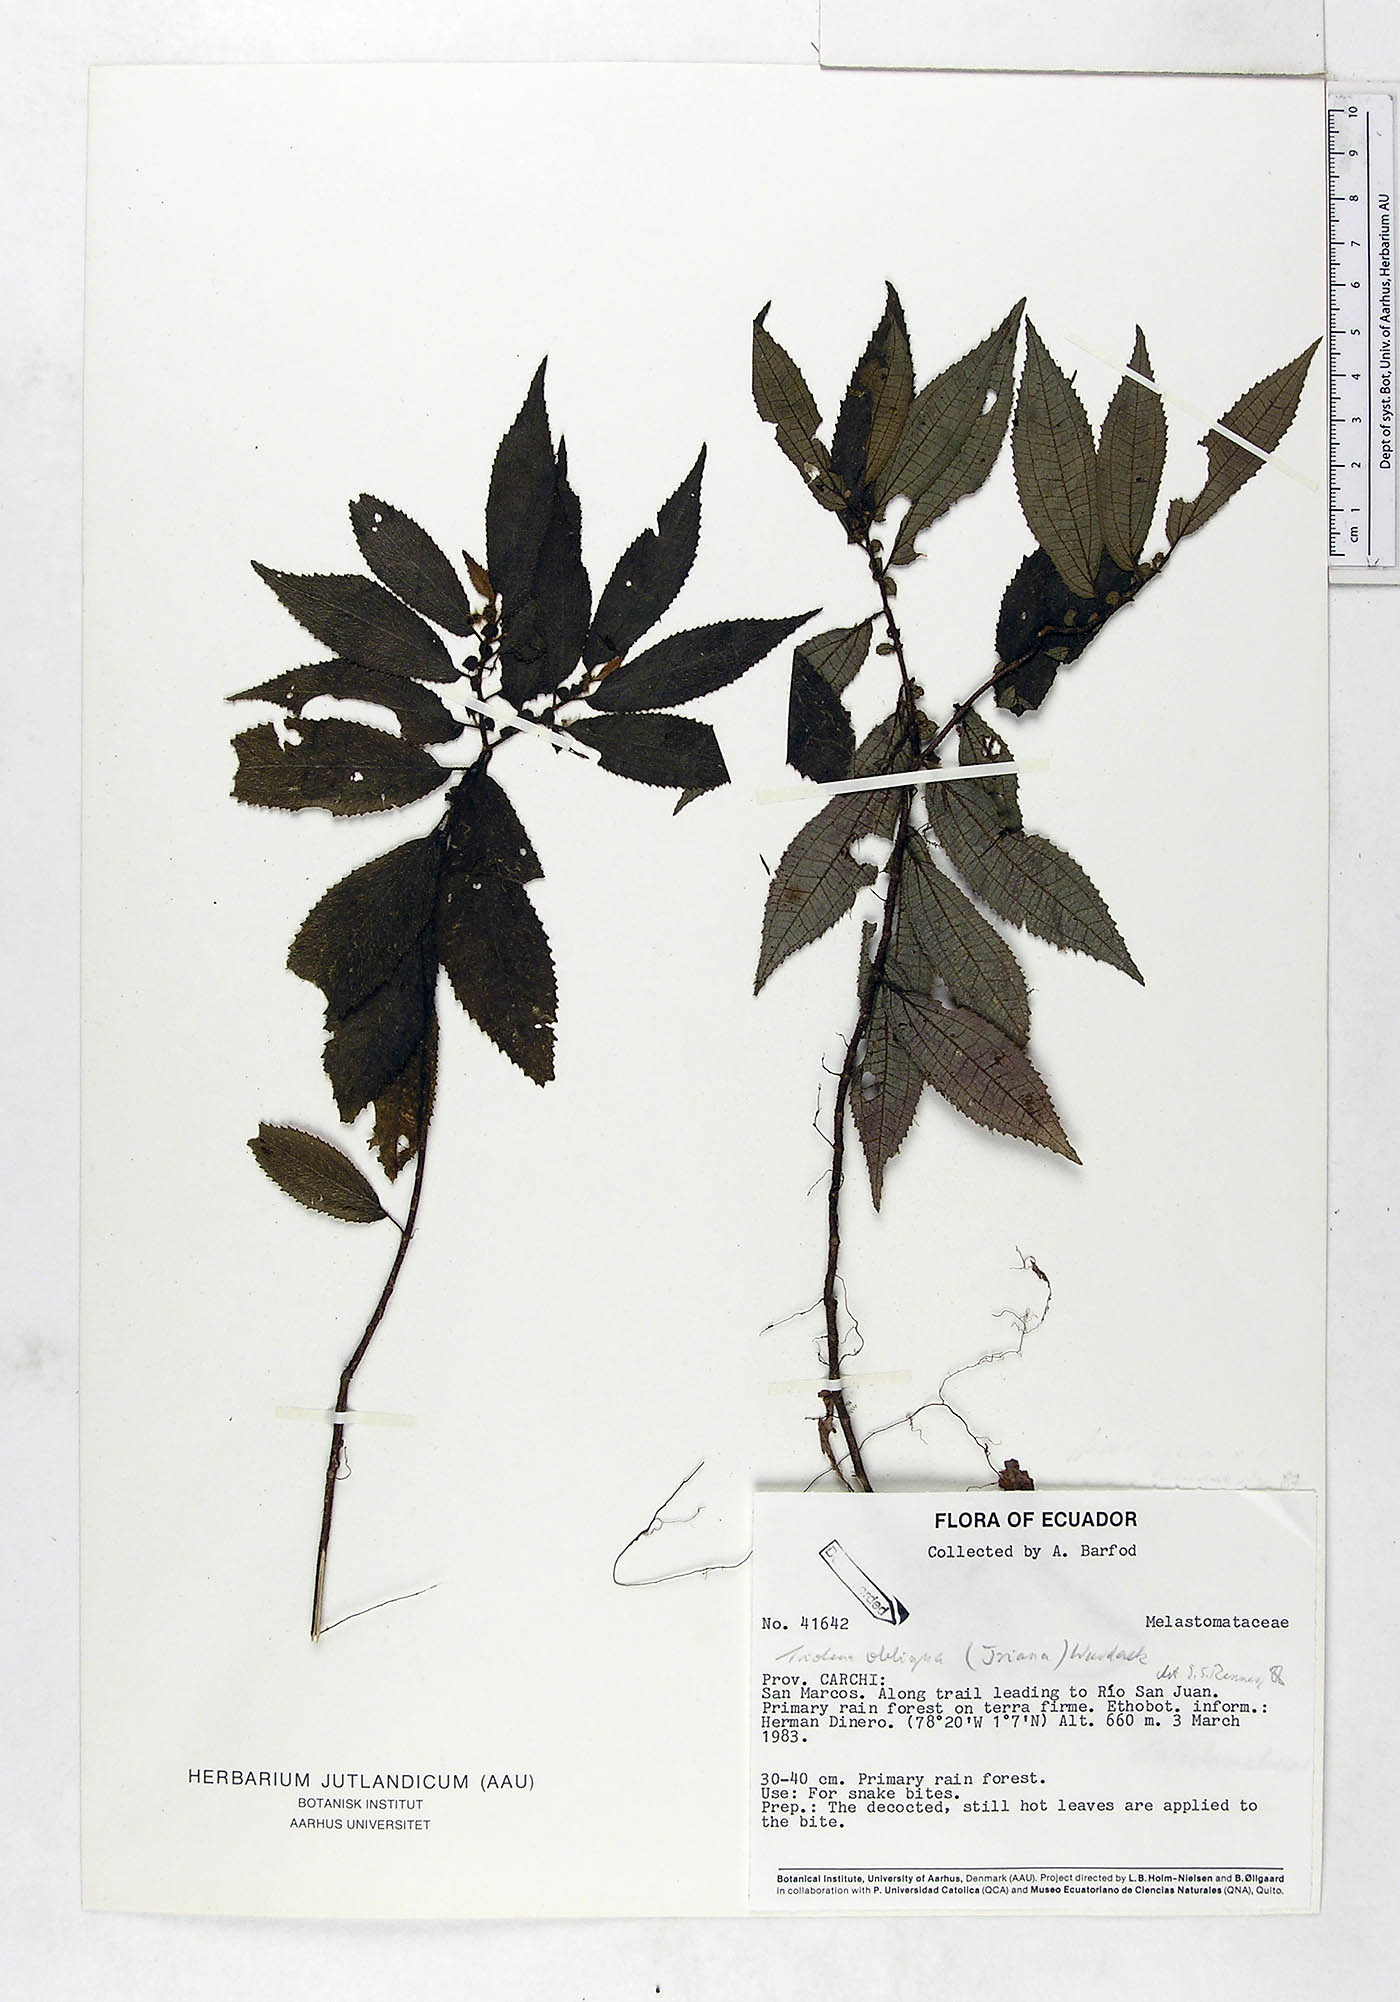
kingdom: Plantae
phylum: Tracheophyta
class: Magnoliopsida
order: Myrtales
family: Melastomataceae
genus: Triolena
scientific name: Triolena obliqua
